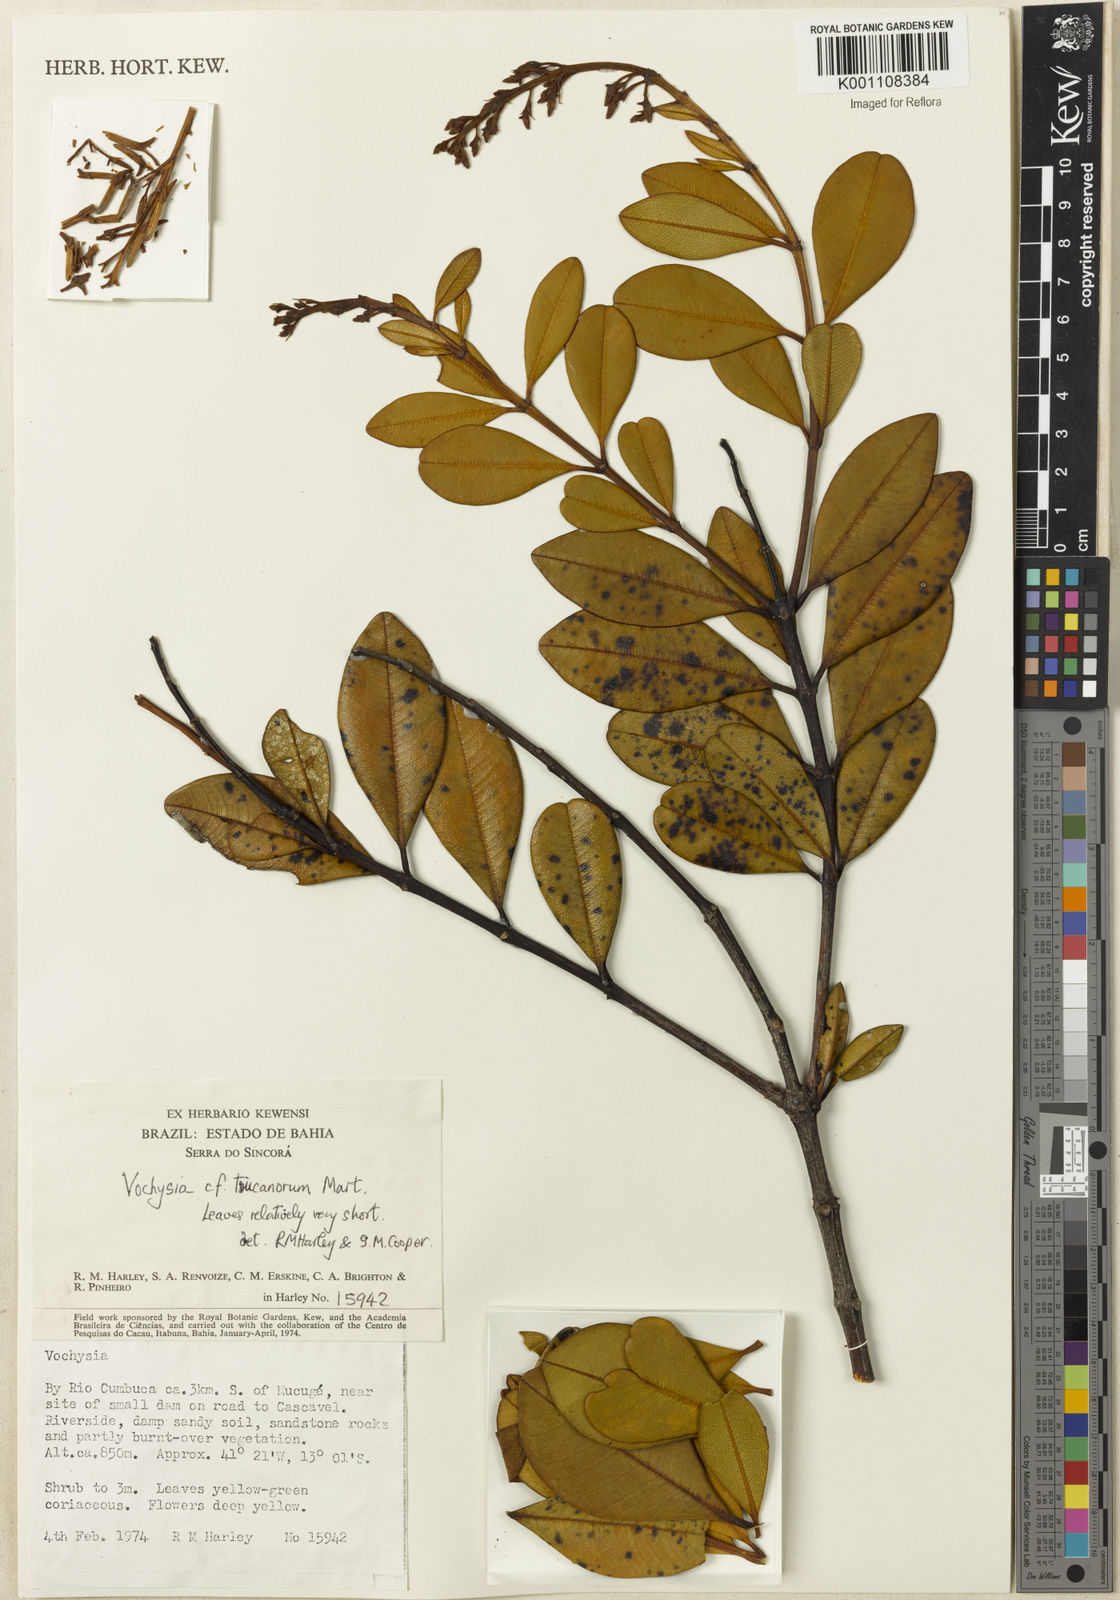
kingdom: Plantae
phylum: Tracheophyta
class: Magnoliopsida
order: Myrtales
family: Vochysiaceae
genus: Vochysia
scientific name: Vochysia tucanorum
